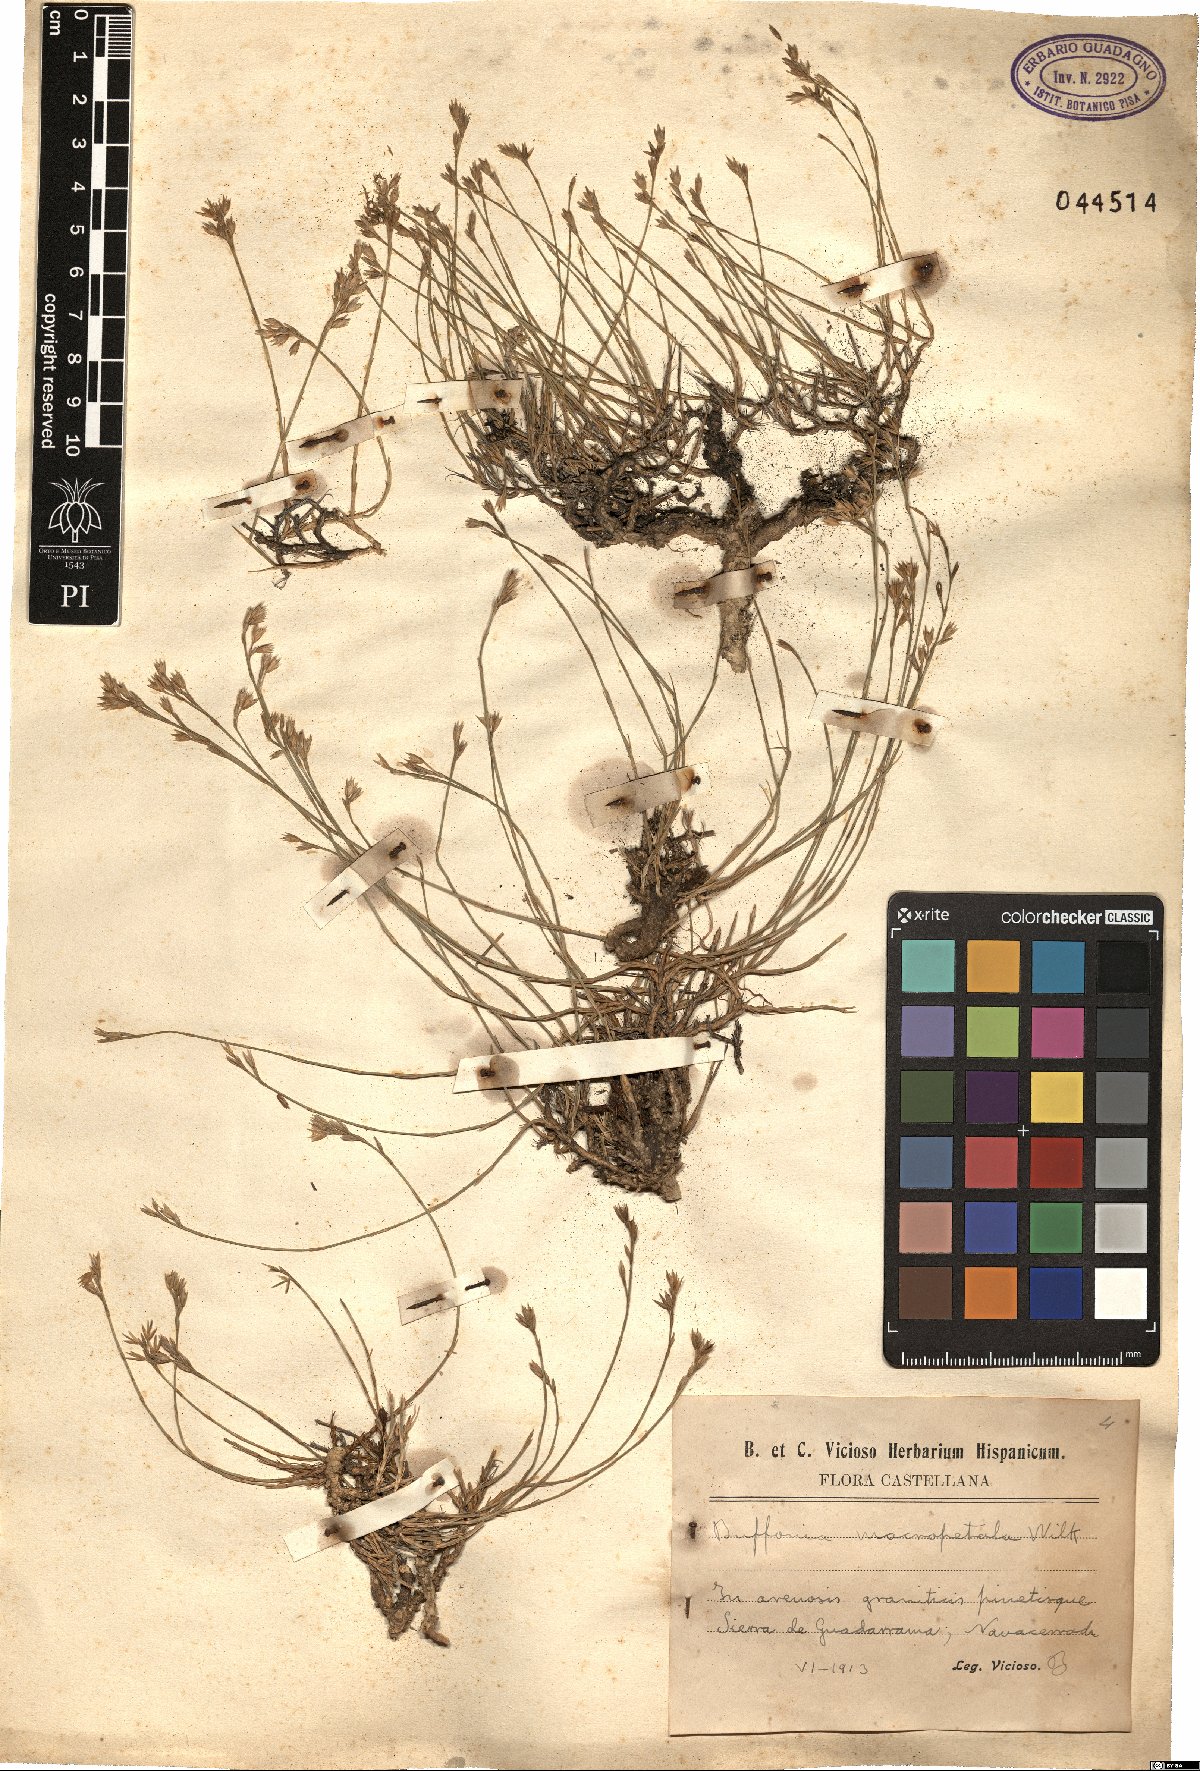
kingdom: Plantae
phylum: Tracheophyta
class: Magnoliopsida
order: Caryophyllales
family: Caryophyllaceae
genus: Bufonia
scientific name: Bufonia macropetala
